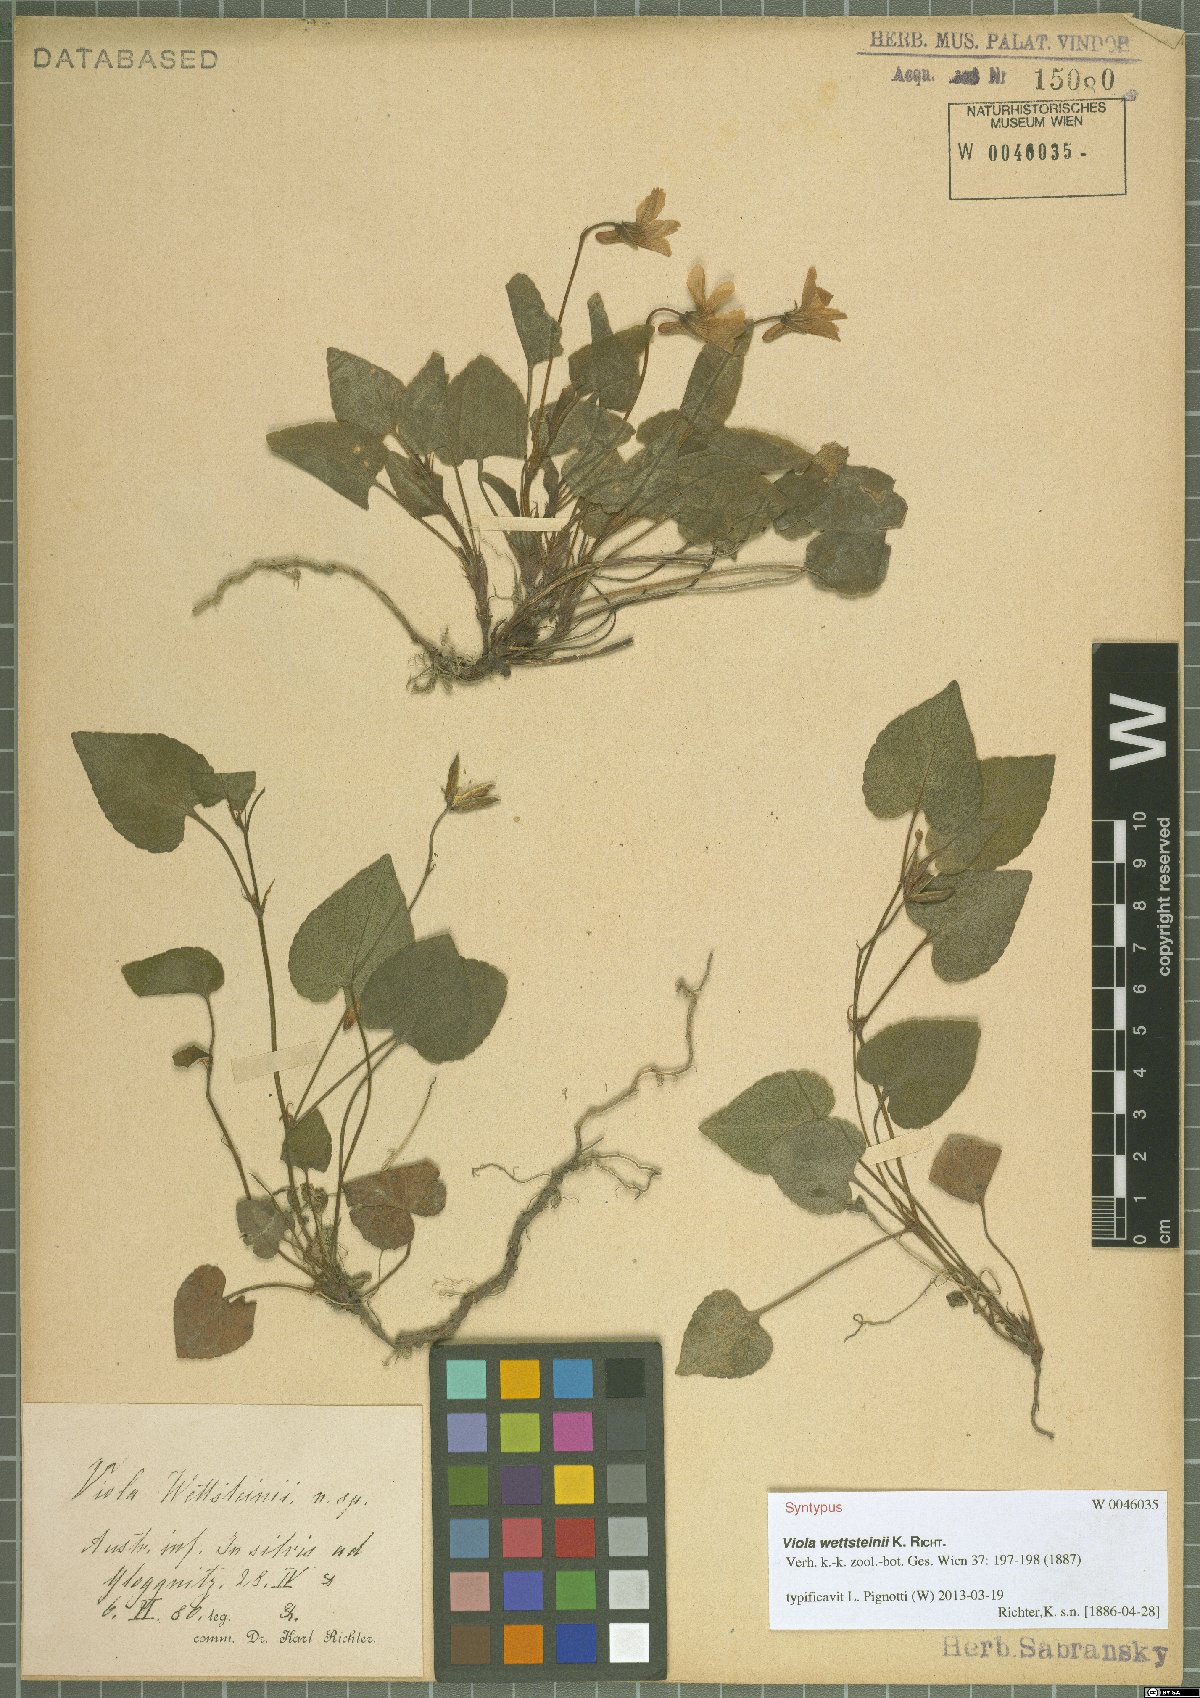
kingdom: Plantae
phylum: Tracheophyta
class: Magnoliopsida
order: Malpighiales
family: Violaceae
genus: Viola
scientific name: Viola bavarica
